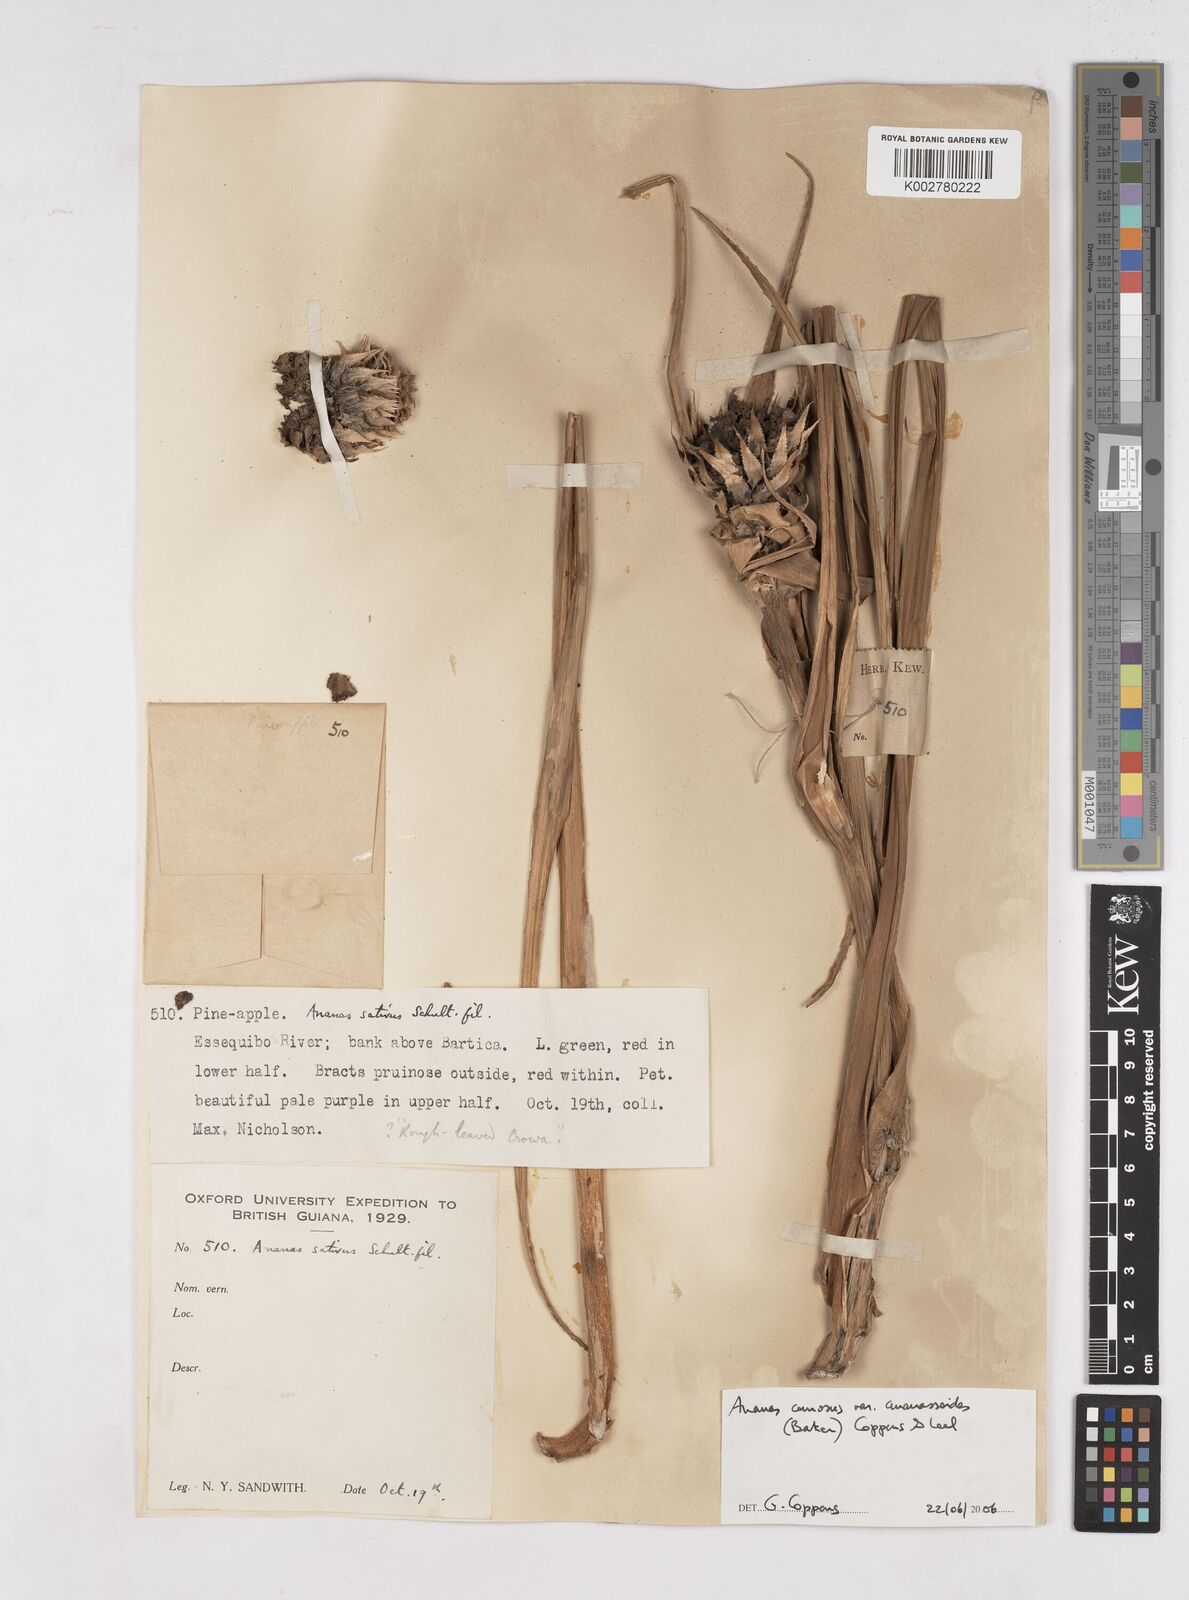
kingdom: Plantae
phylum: Tracheophyta
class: Liliopsida
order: Poales
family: Bromeliaceae
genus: Ananas
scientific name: Ananas comosus
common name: Pineapple
